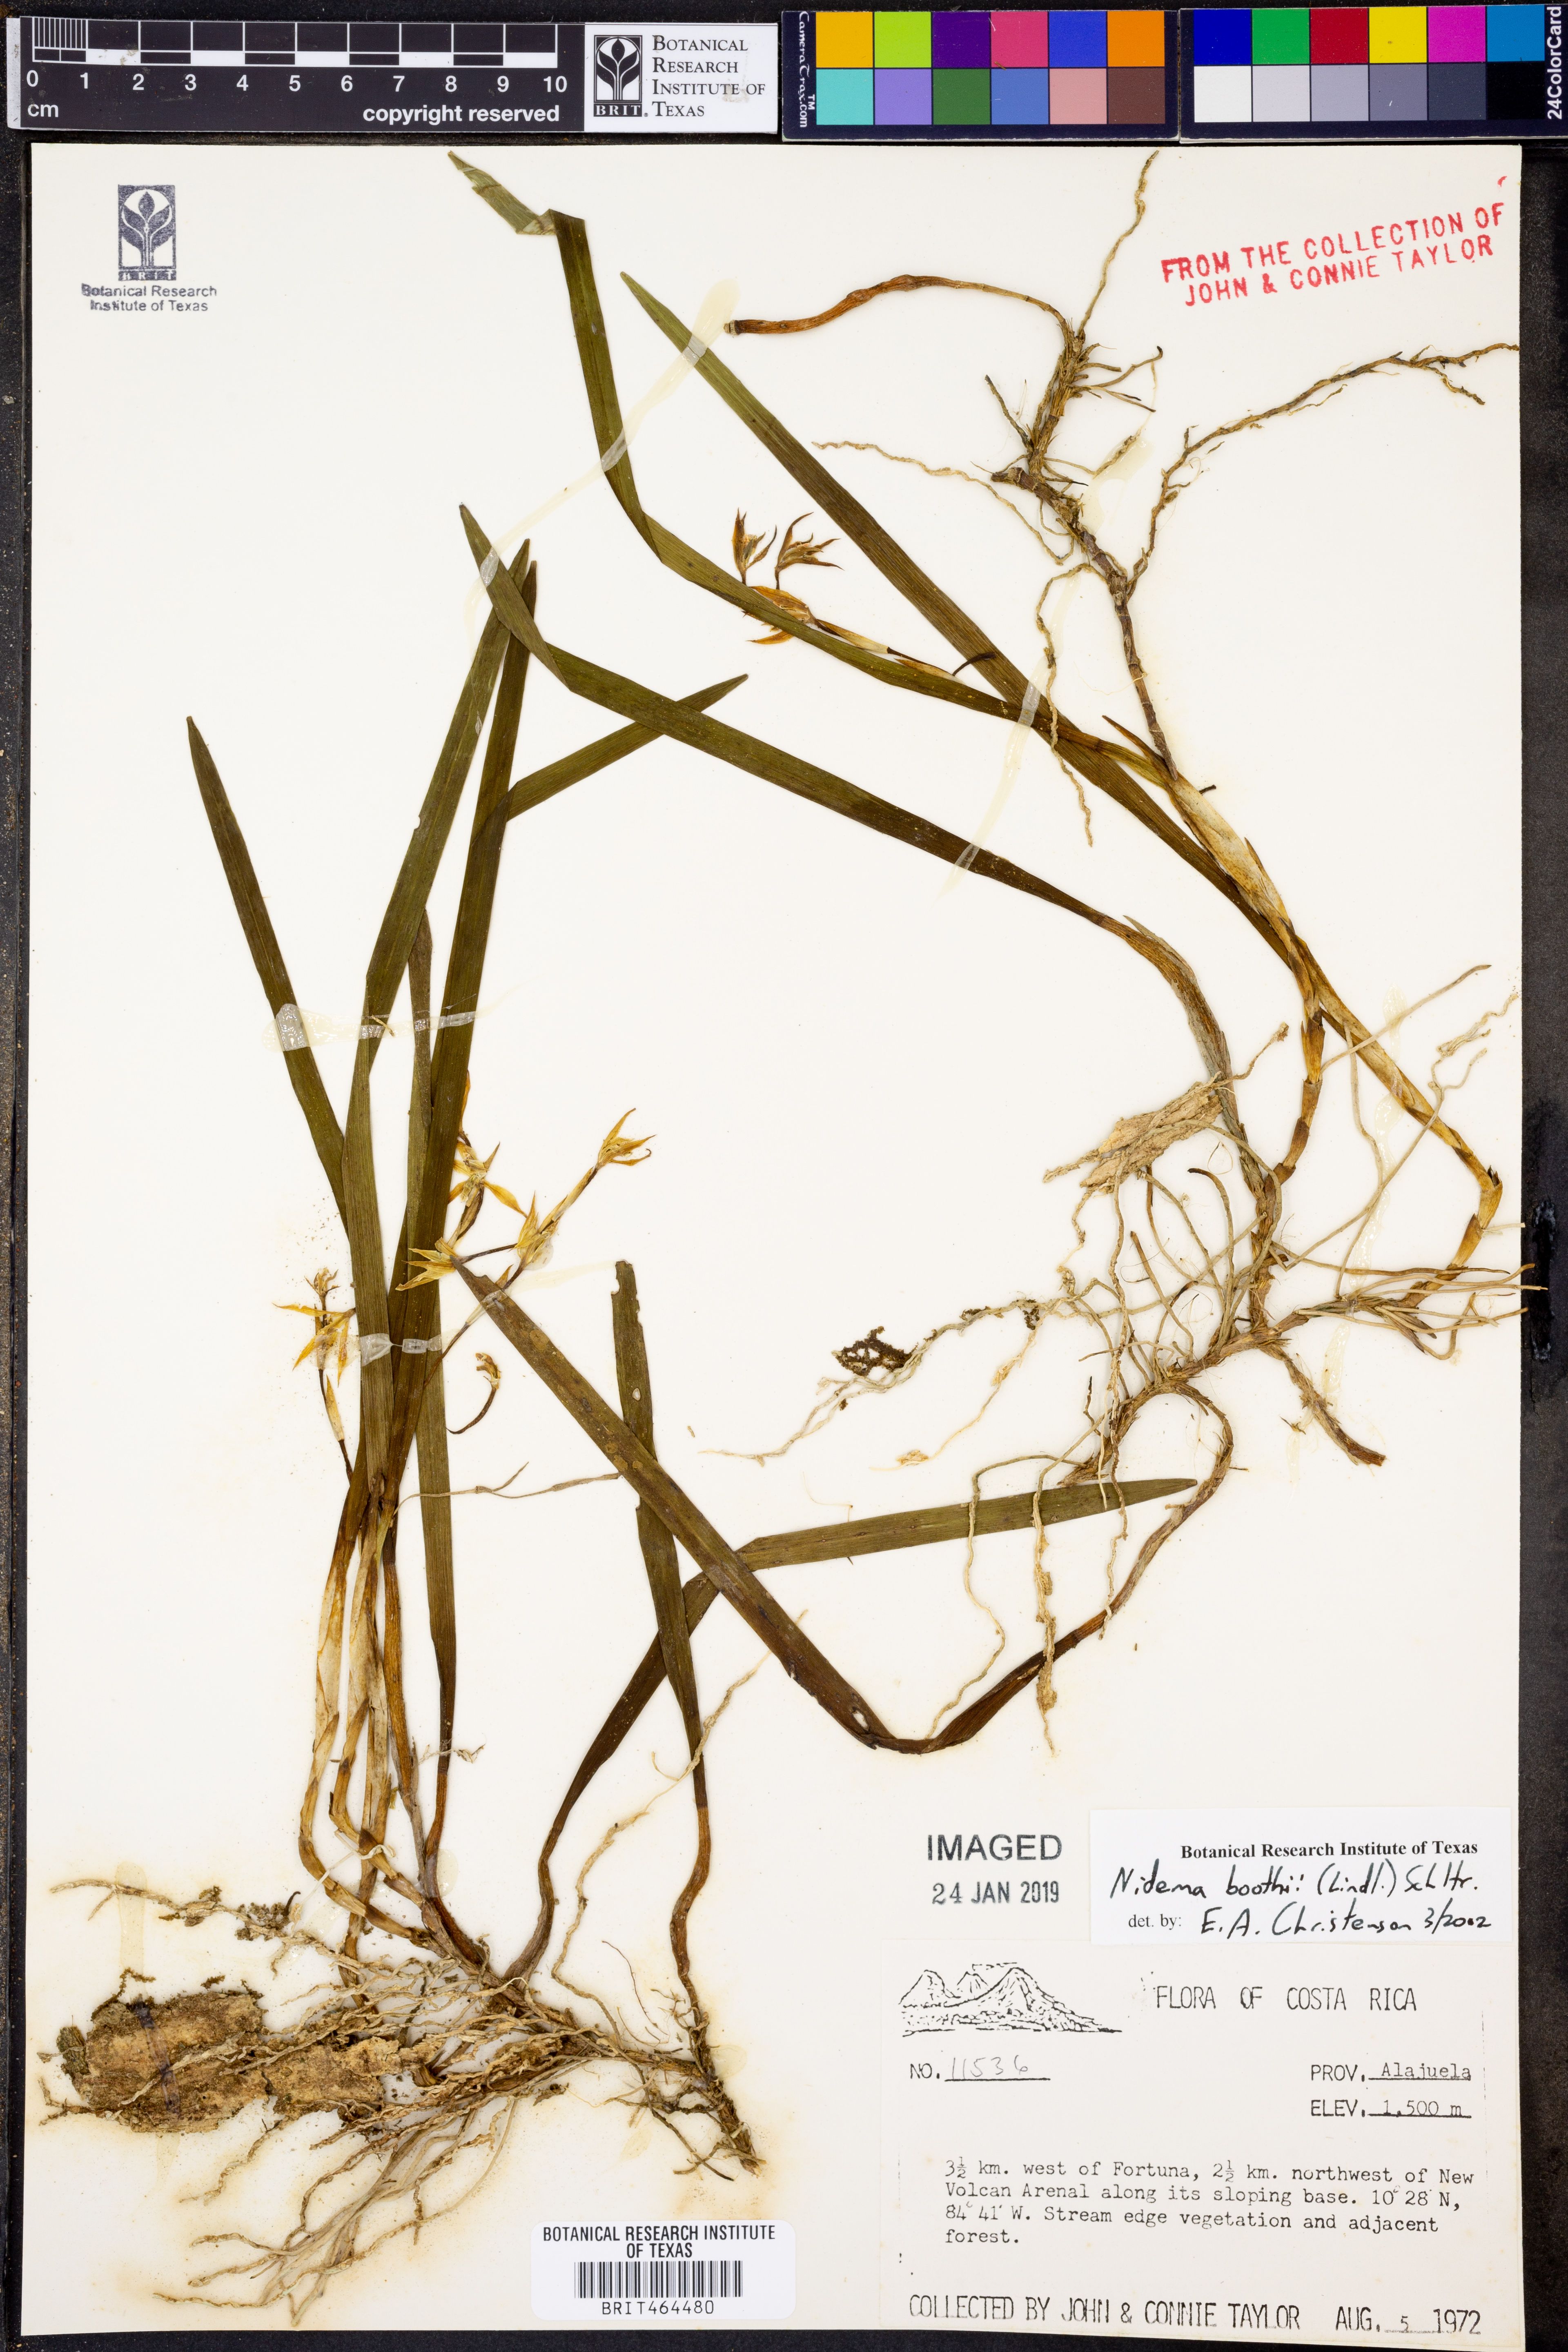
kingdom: Plantae
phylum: Tracheophyta
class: Liliopsida
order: Asparagales
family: Orchidaceae
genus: Nidema
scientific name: Nidema boothii
